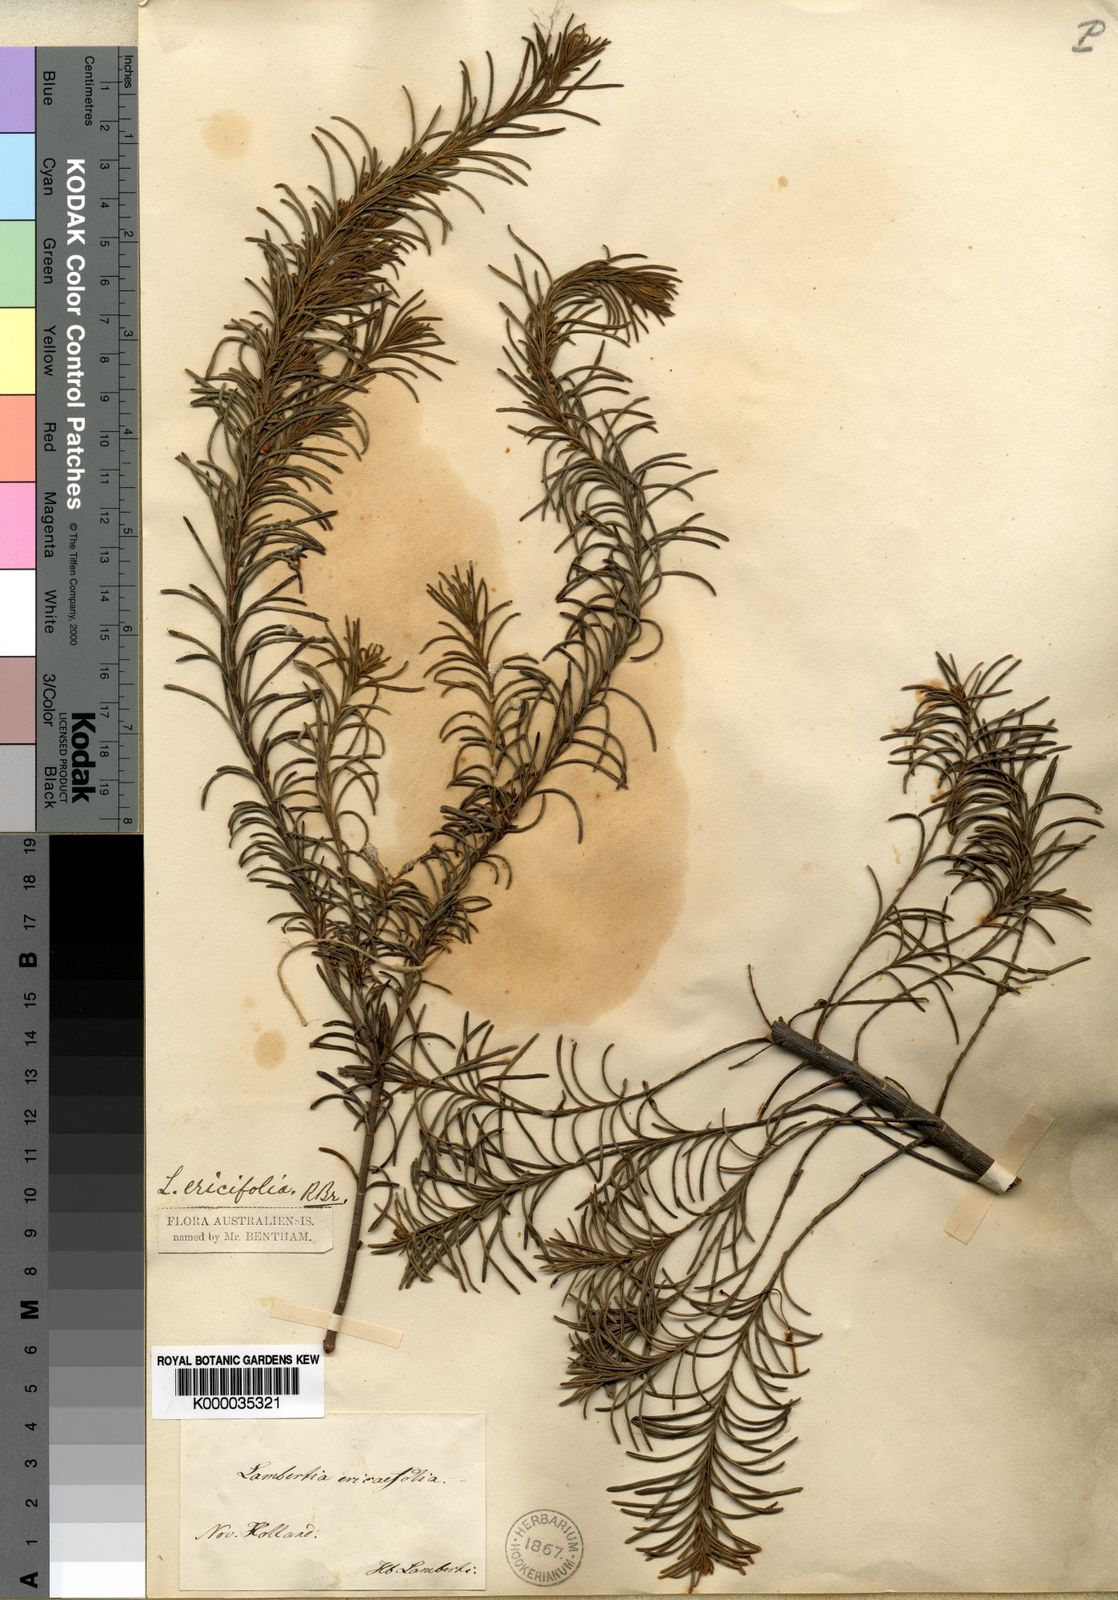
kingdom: Plantae
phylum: Tracheophyta
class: Magnoliopsida
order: Proteales
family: Proteaceae
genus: Lambertia
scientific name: Lambertia ericifolia
